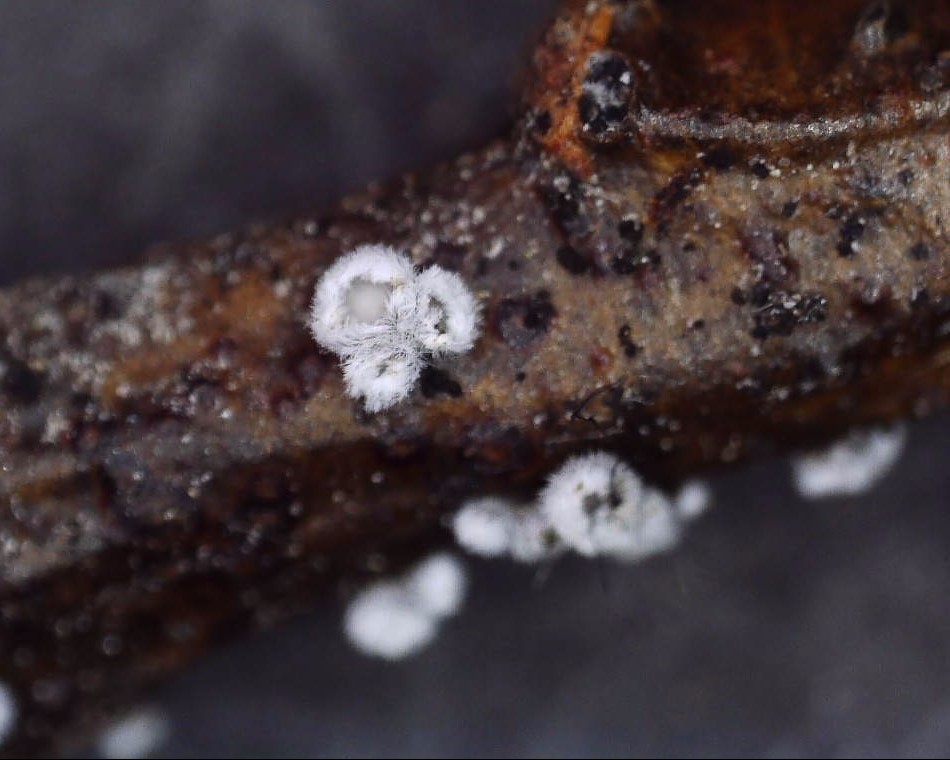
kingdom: Fungi
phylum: Basidiomycota
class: Agaricomycetes
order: Agaricales
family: Niaceae
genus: Lachnella
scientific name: Lachnella alboviolascens
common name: grå frynserede
